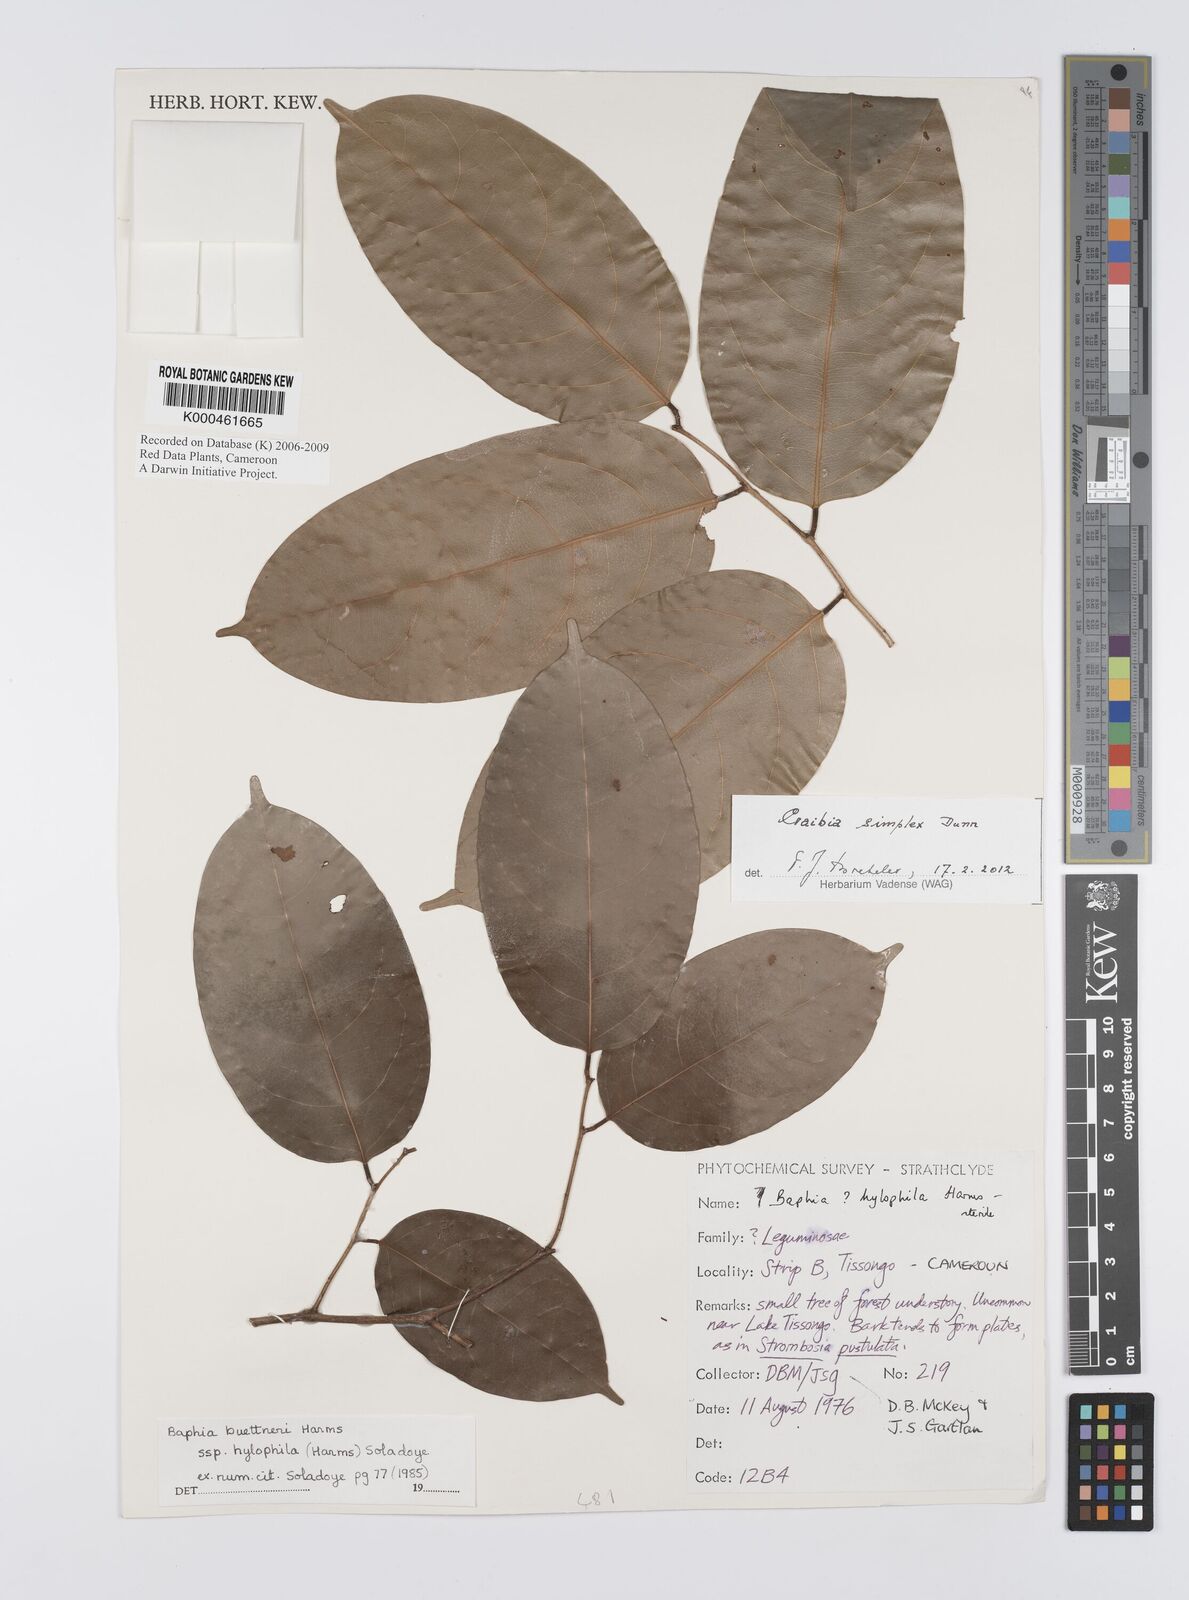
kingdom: Plantae
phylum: Tracheophyta
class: Magnoliopsida
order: Fabales
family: Fabaceae
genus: Baphia
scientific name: Baphia buettneri
